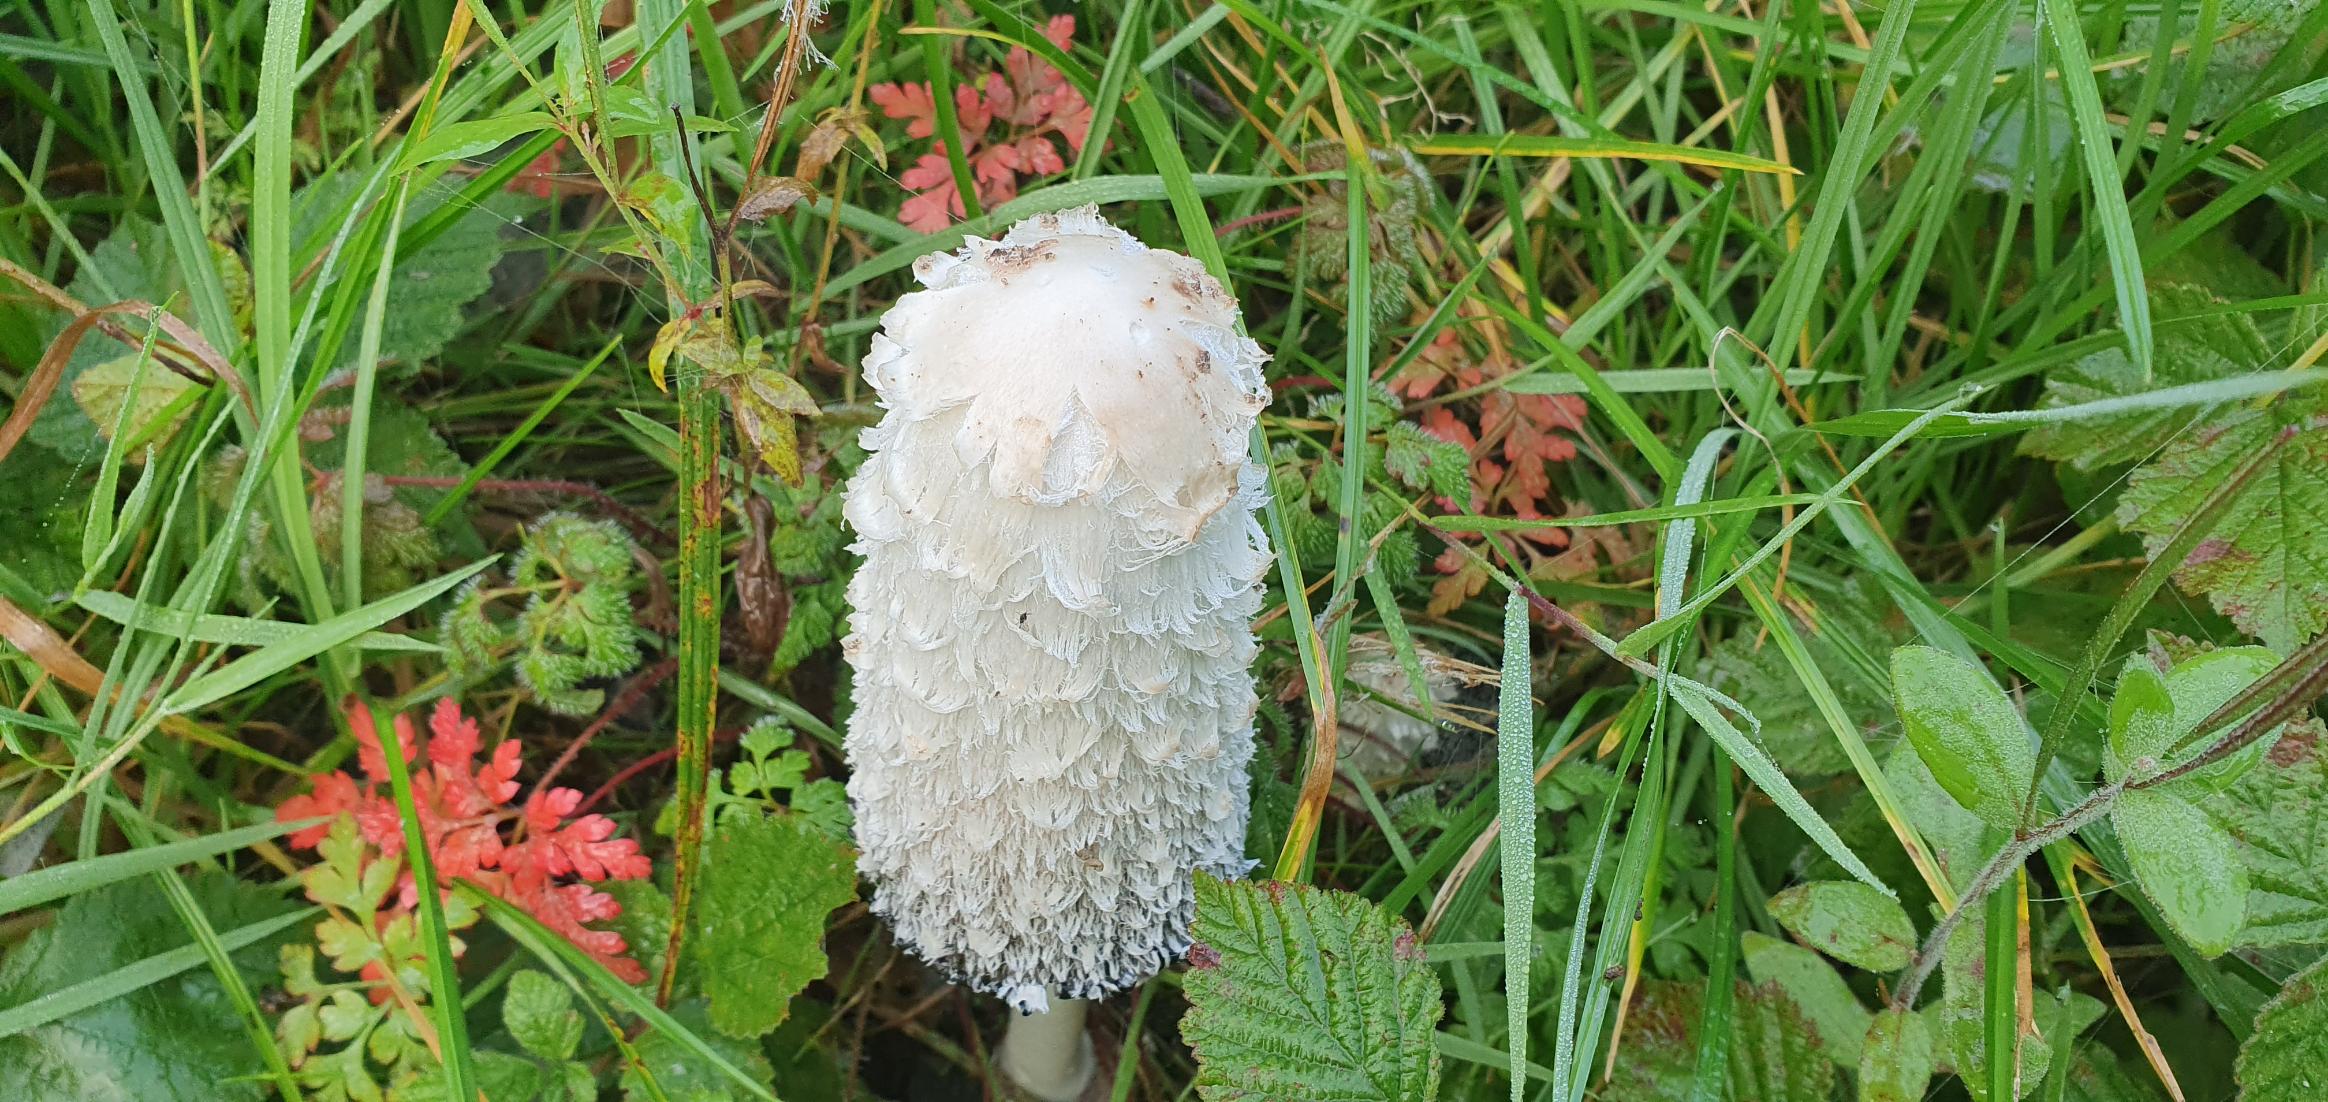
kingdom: Fungi
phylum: Basidiomycota
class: Agaricomycetes
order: Agaricales
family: Agaricaceae
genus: Coprinus
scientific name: Coprinus comatus
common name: Stor parykhat
